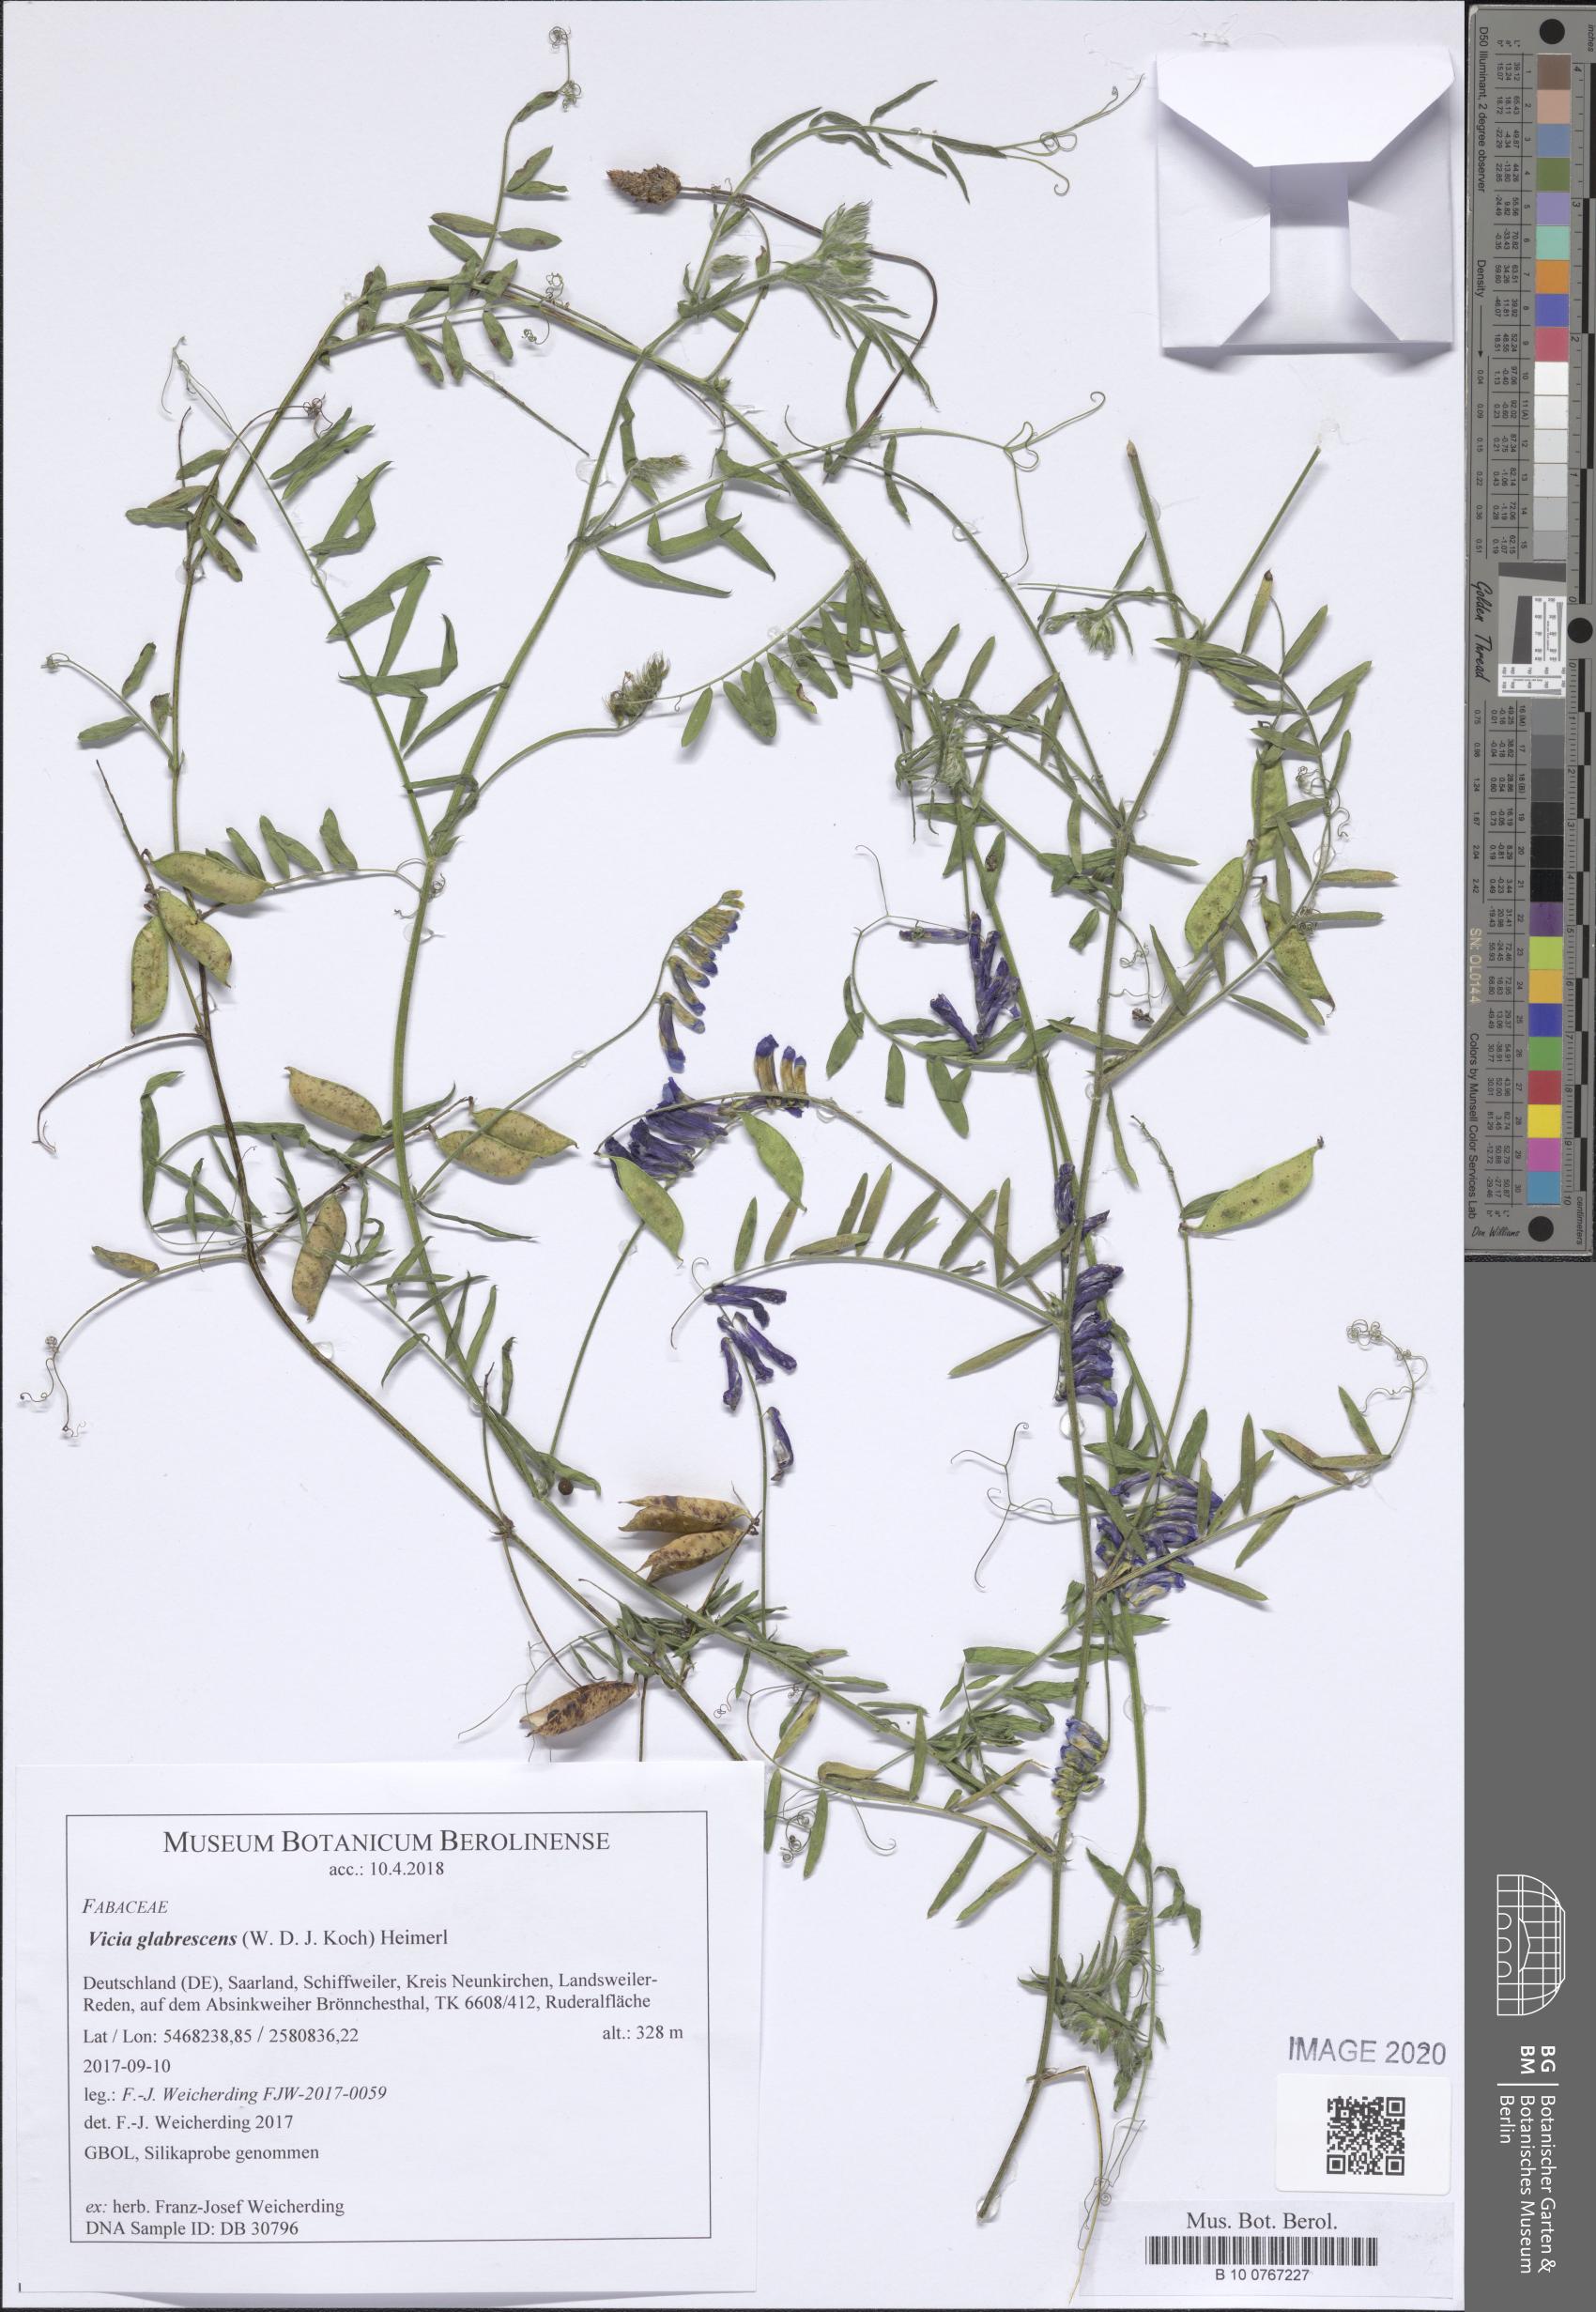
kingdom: Plantae
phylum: Tracheophyta
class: Magnoliopsida
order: Fabales
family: Fabaceae
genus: Vicia
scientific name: Vicia villosa
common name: Fodder vetch
